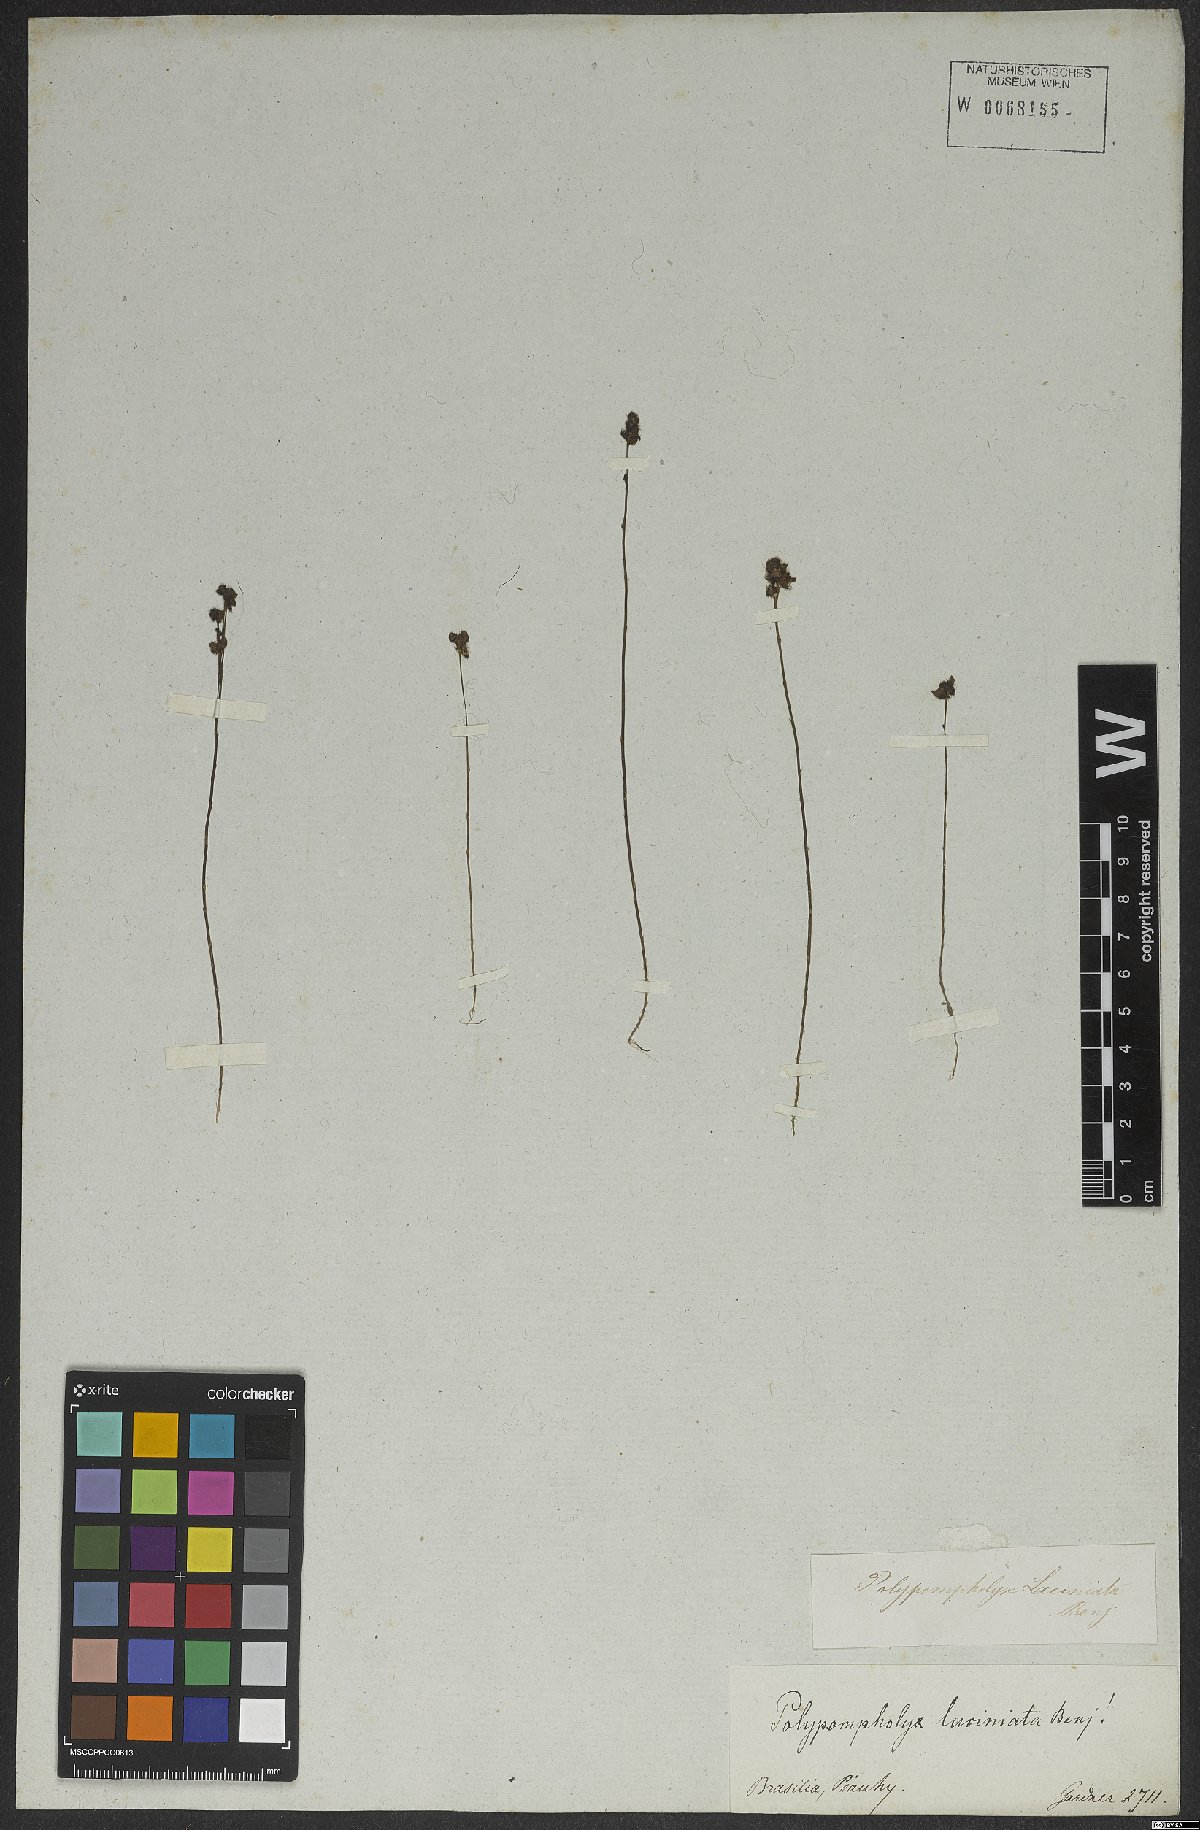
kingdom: Plantae
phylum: Tracheophyta
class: Magnoliopsida
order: Lamiales
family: Lentibulariaceae
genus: Utricularia
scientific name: Utricularia laciniata
